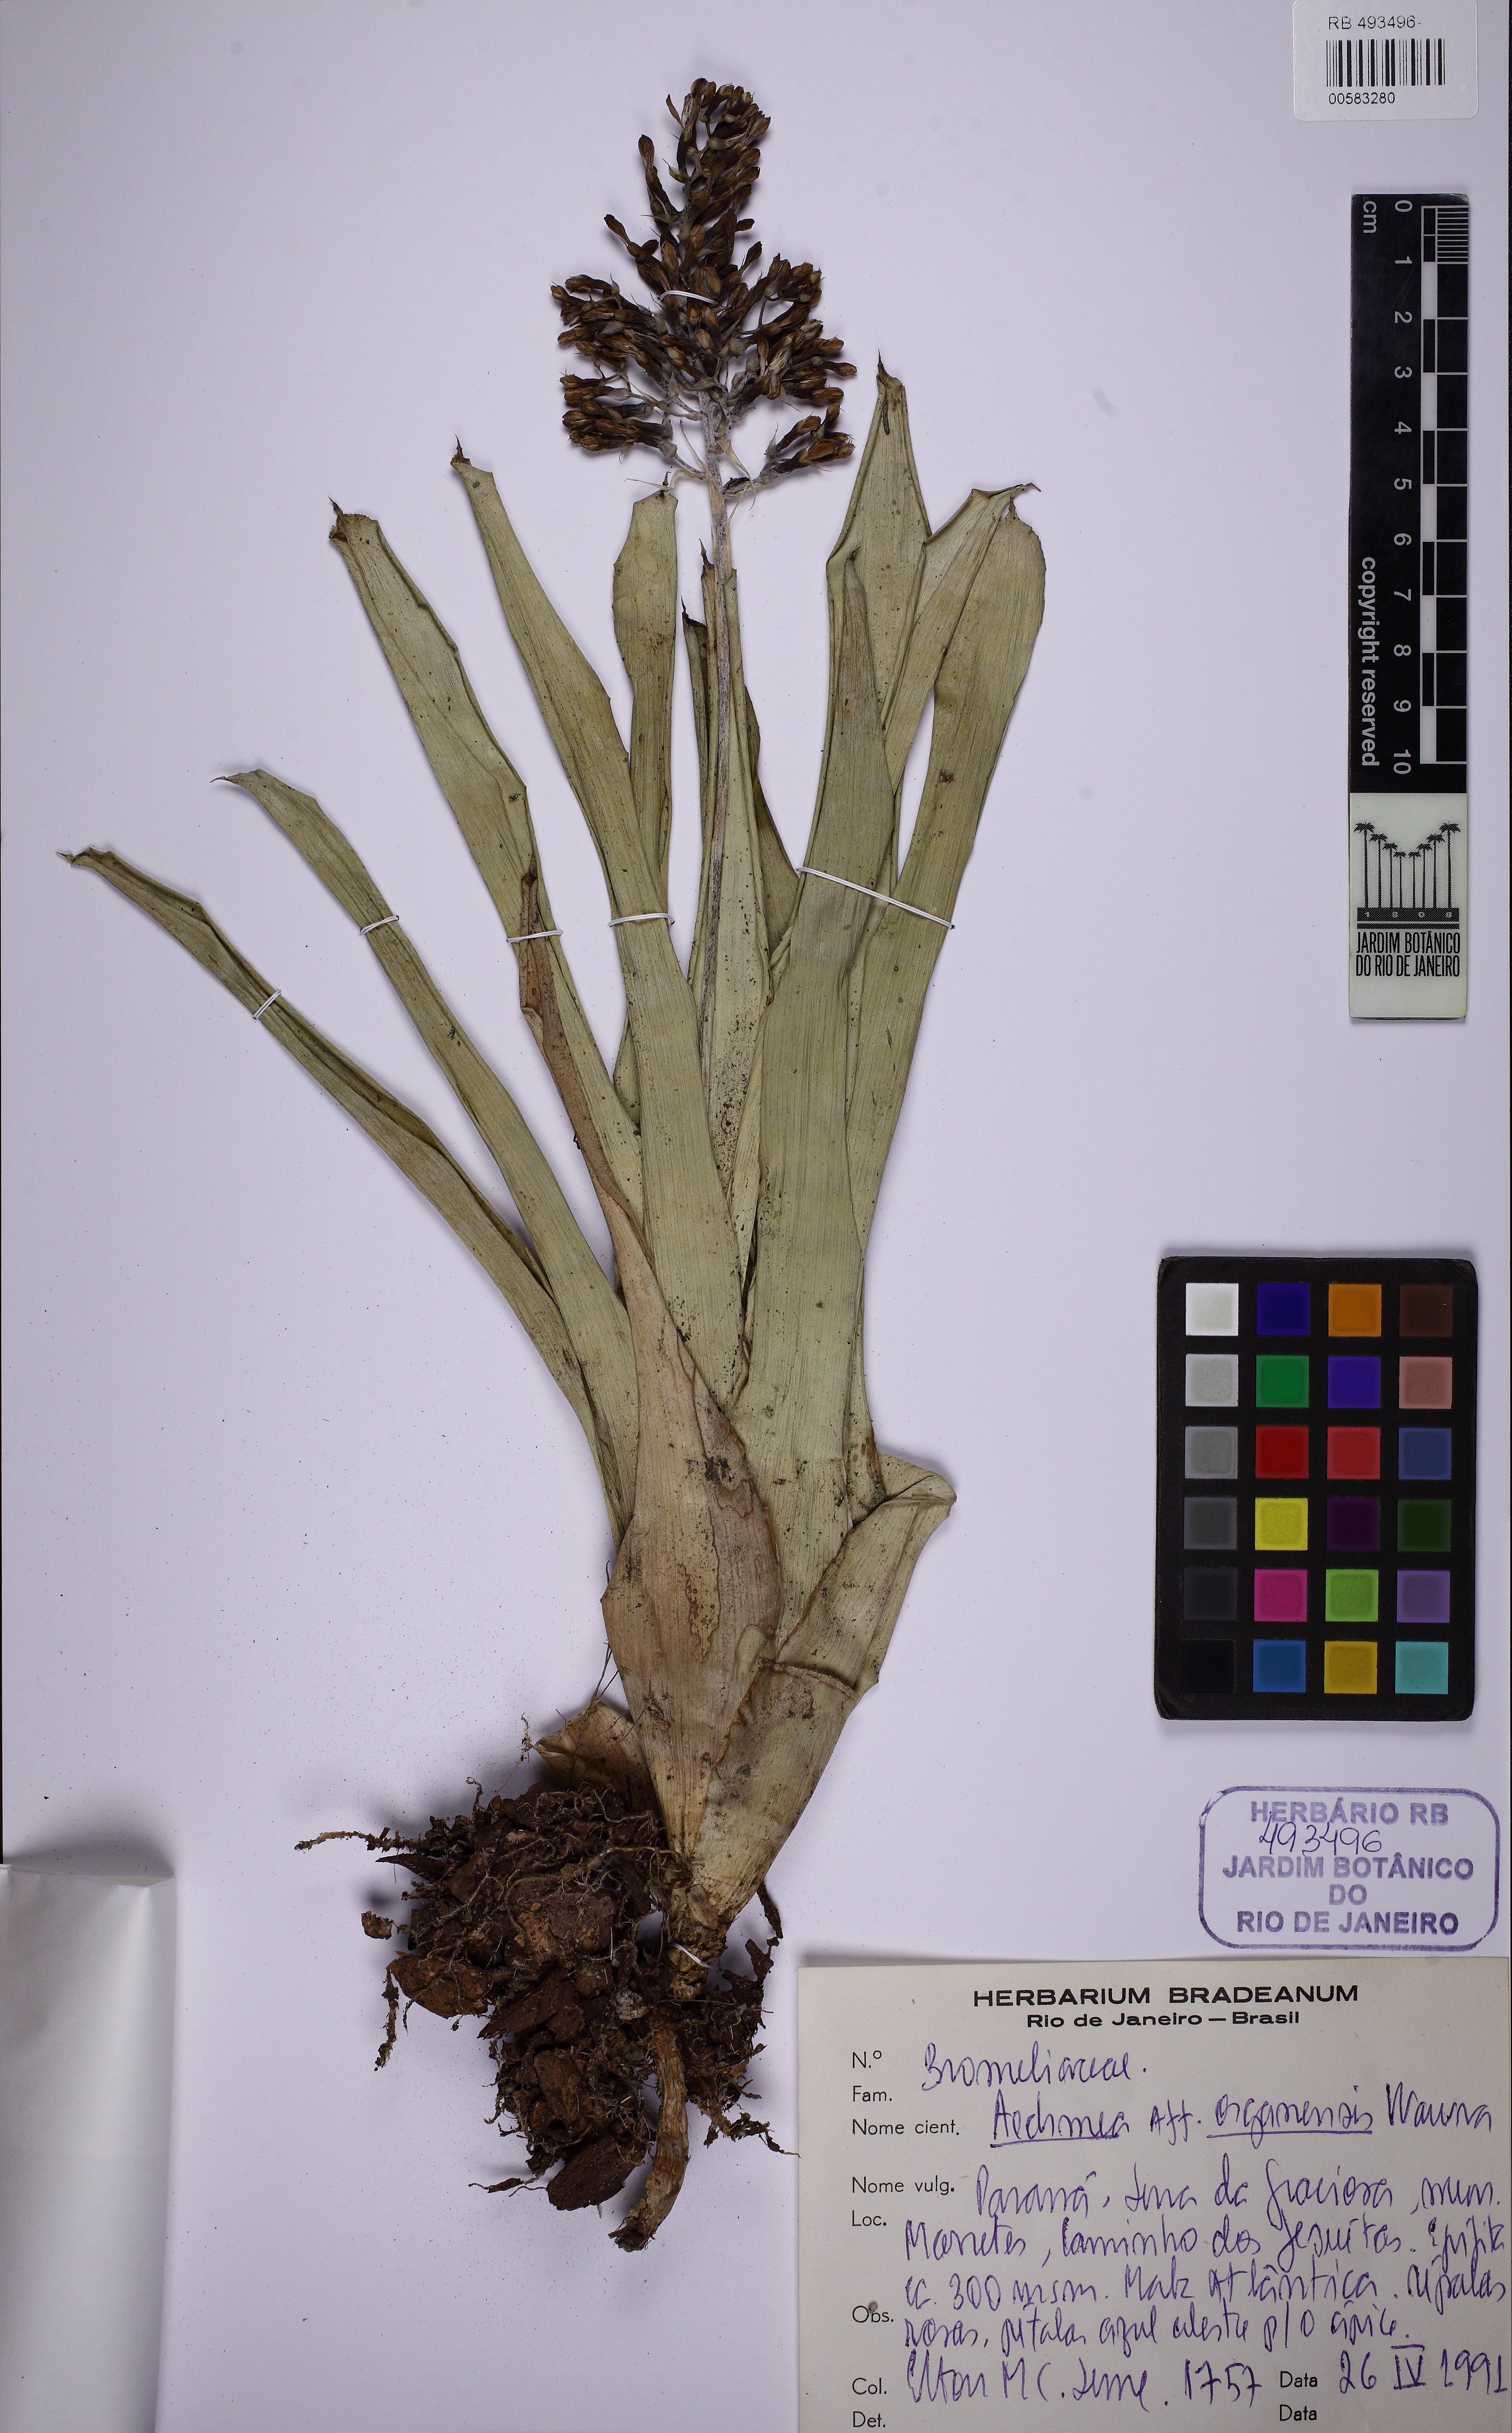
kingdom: Plantae
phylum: Tracheophyta
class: Liliopsida
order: Poales
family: Bromeliaceae
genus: Aechmea
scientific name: Aechmea
